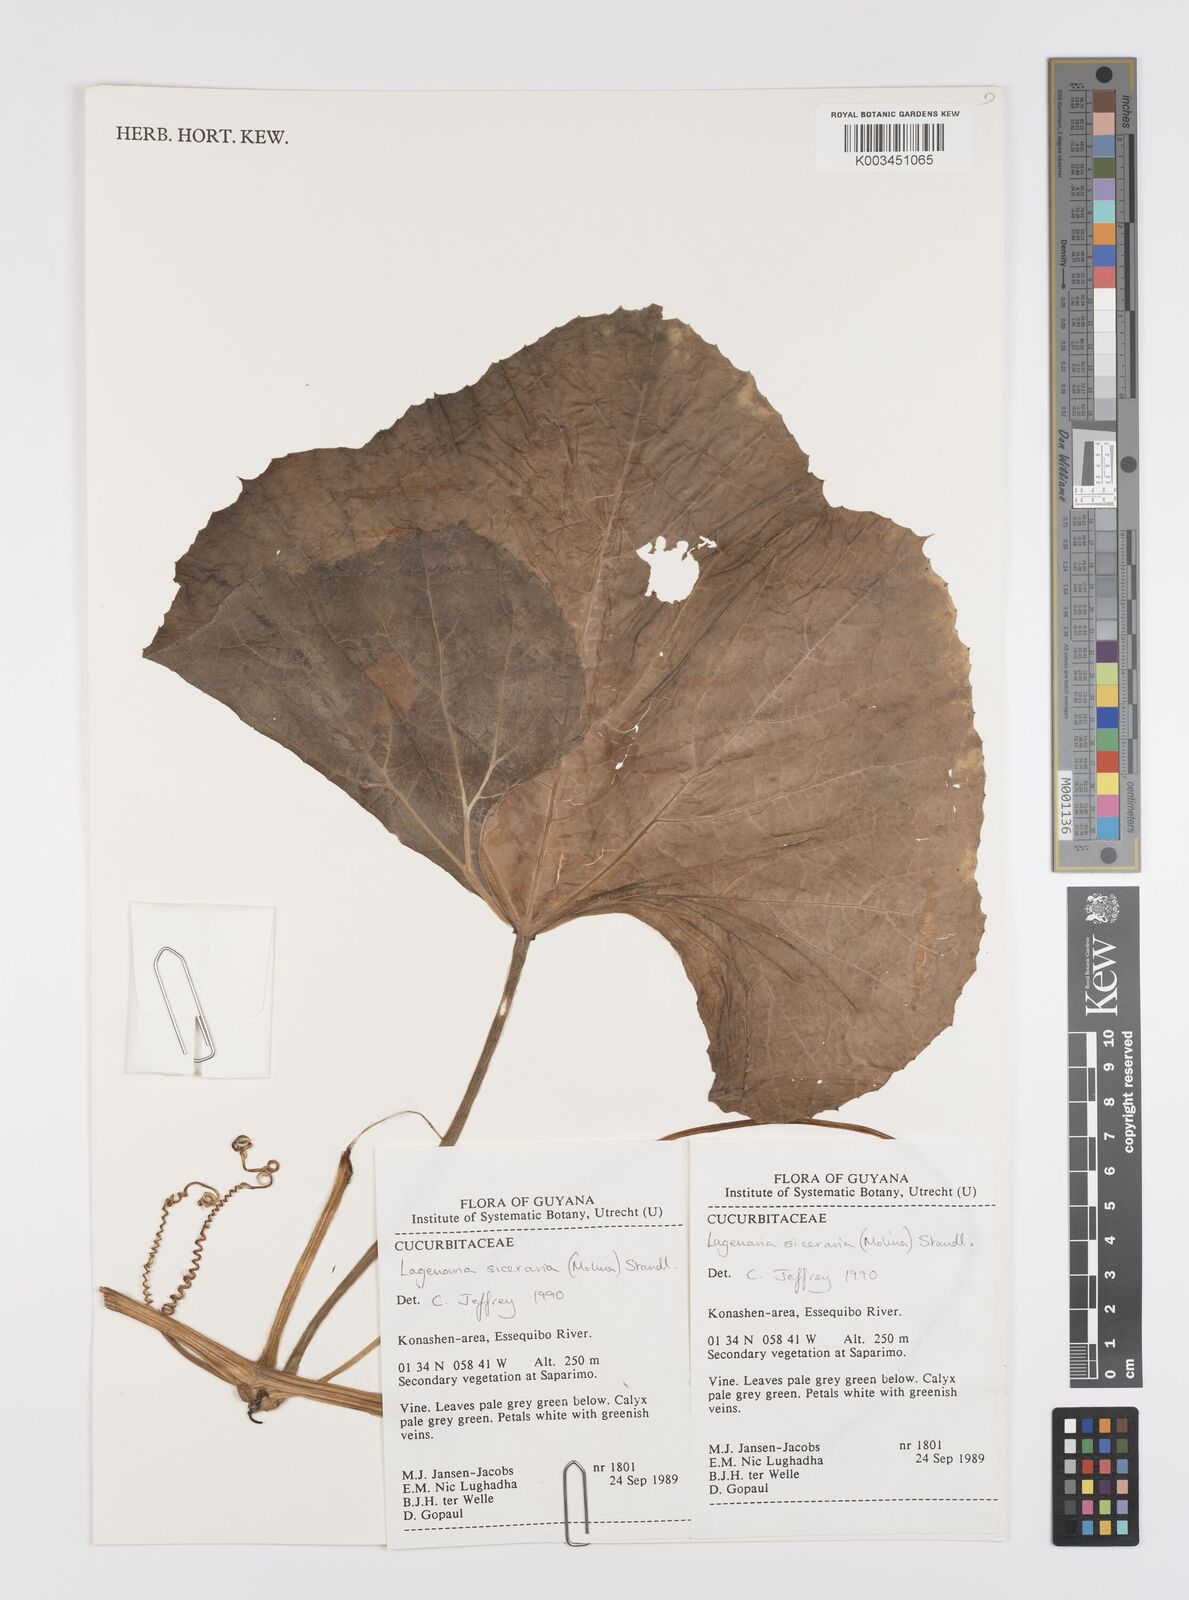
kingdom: Plantae
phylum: Tracheophyta
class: Magnoliopsida
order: Cucurbitales
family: Cucurbitaceae
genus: Lagenaria
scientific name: Lagenaria siceraria
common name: Bottle gourd
